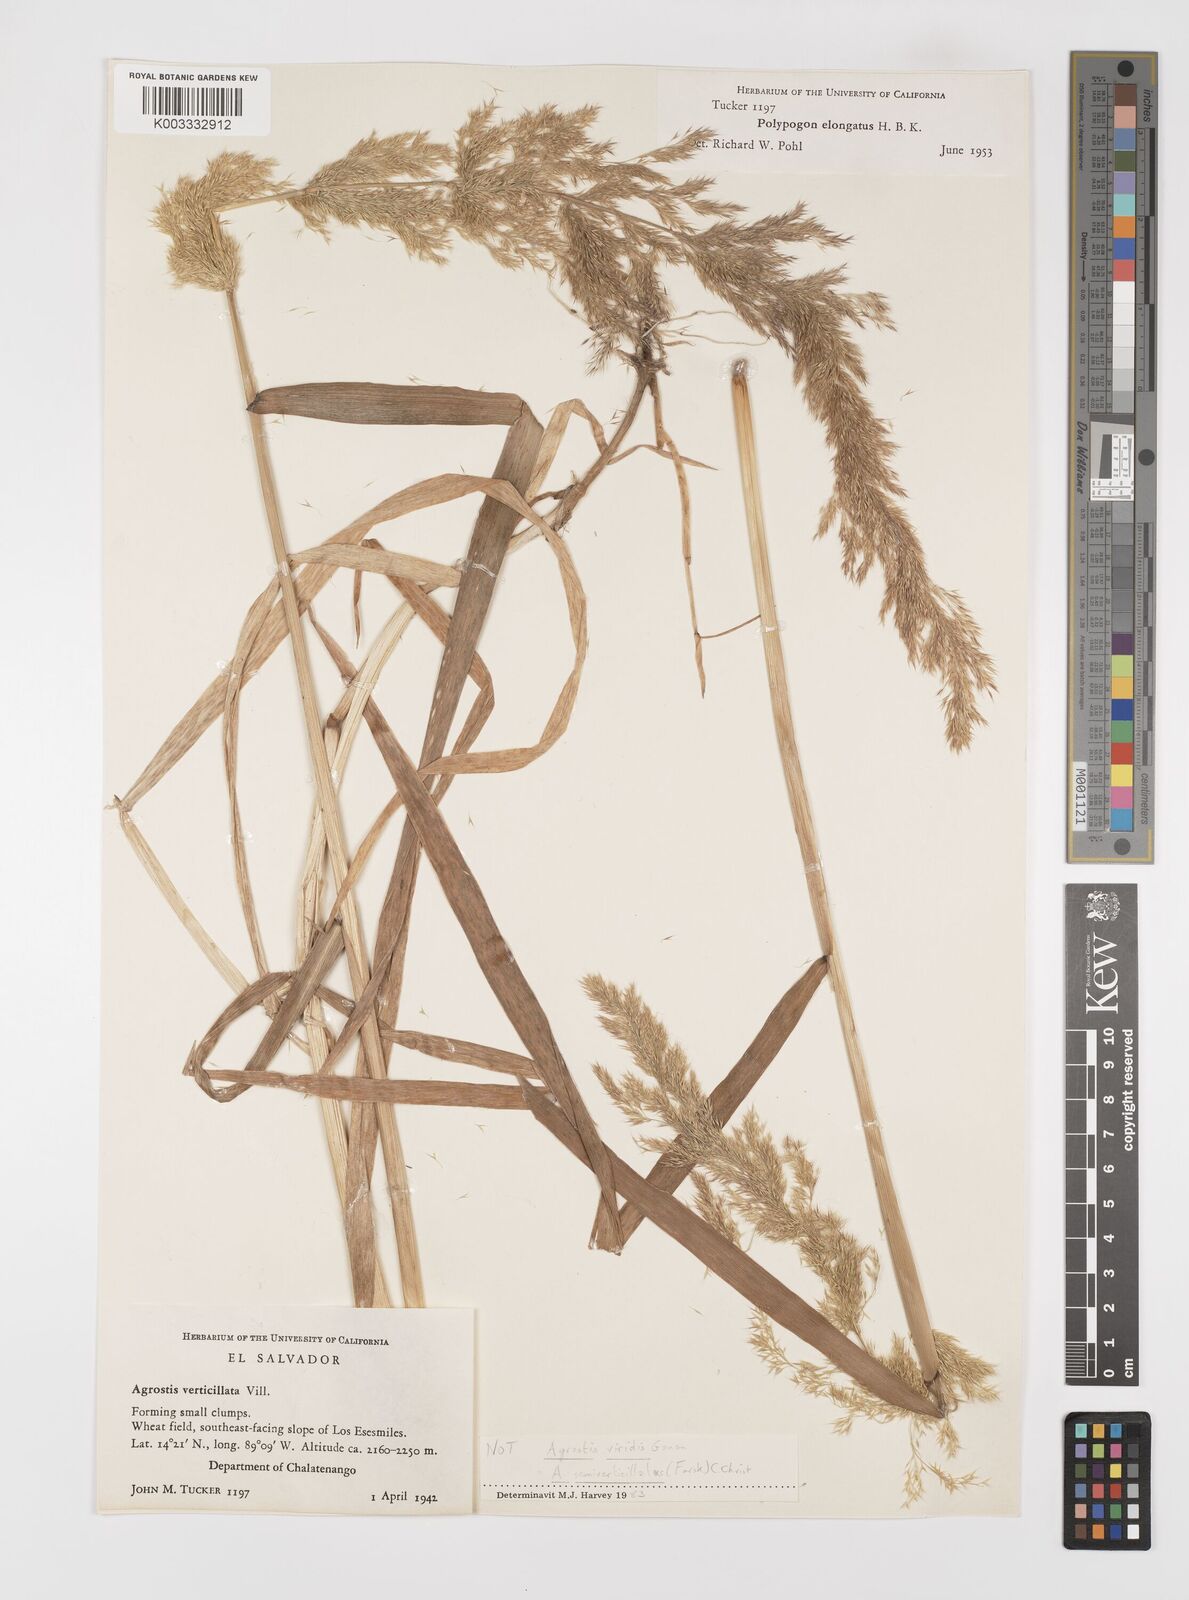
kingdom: Plantae
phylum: Tracheophyta
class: Liliopsida
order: Poales
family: Poaceae
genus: Polypogon
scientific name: Polypogon elongatus
